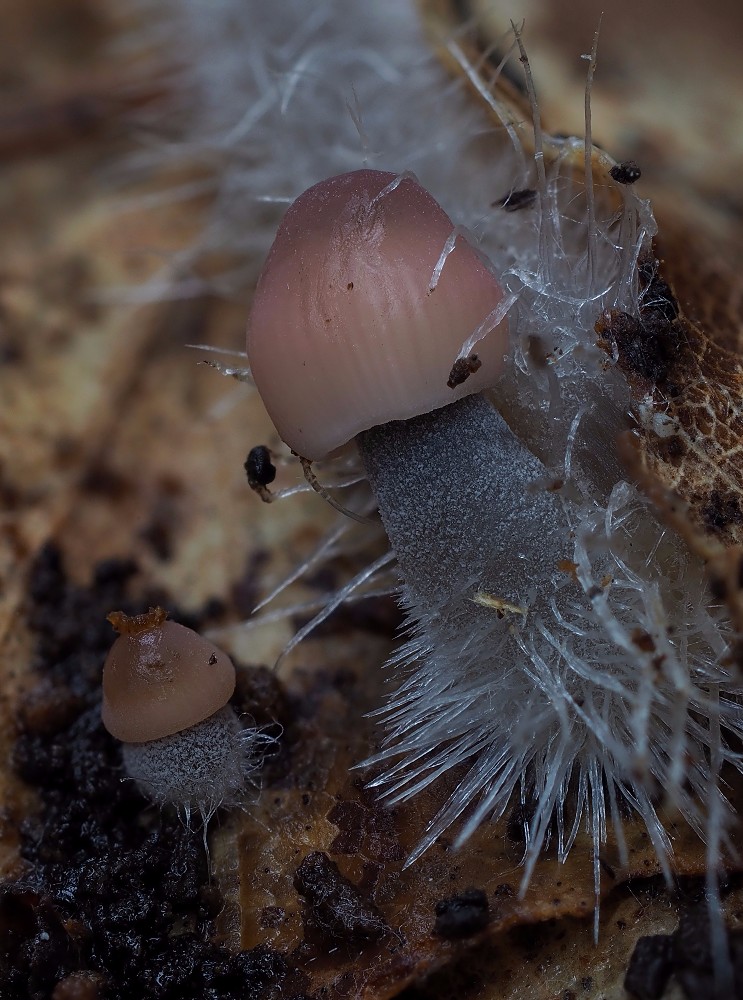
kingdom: Fungi
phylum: Basidiomycota
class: Agaricomycetes
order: Agaricales
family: Mycenaceae
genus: Mycena
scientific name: Mycena metata
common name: rødlig huesvamp
